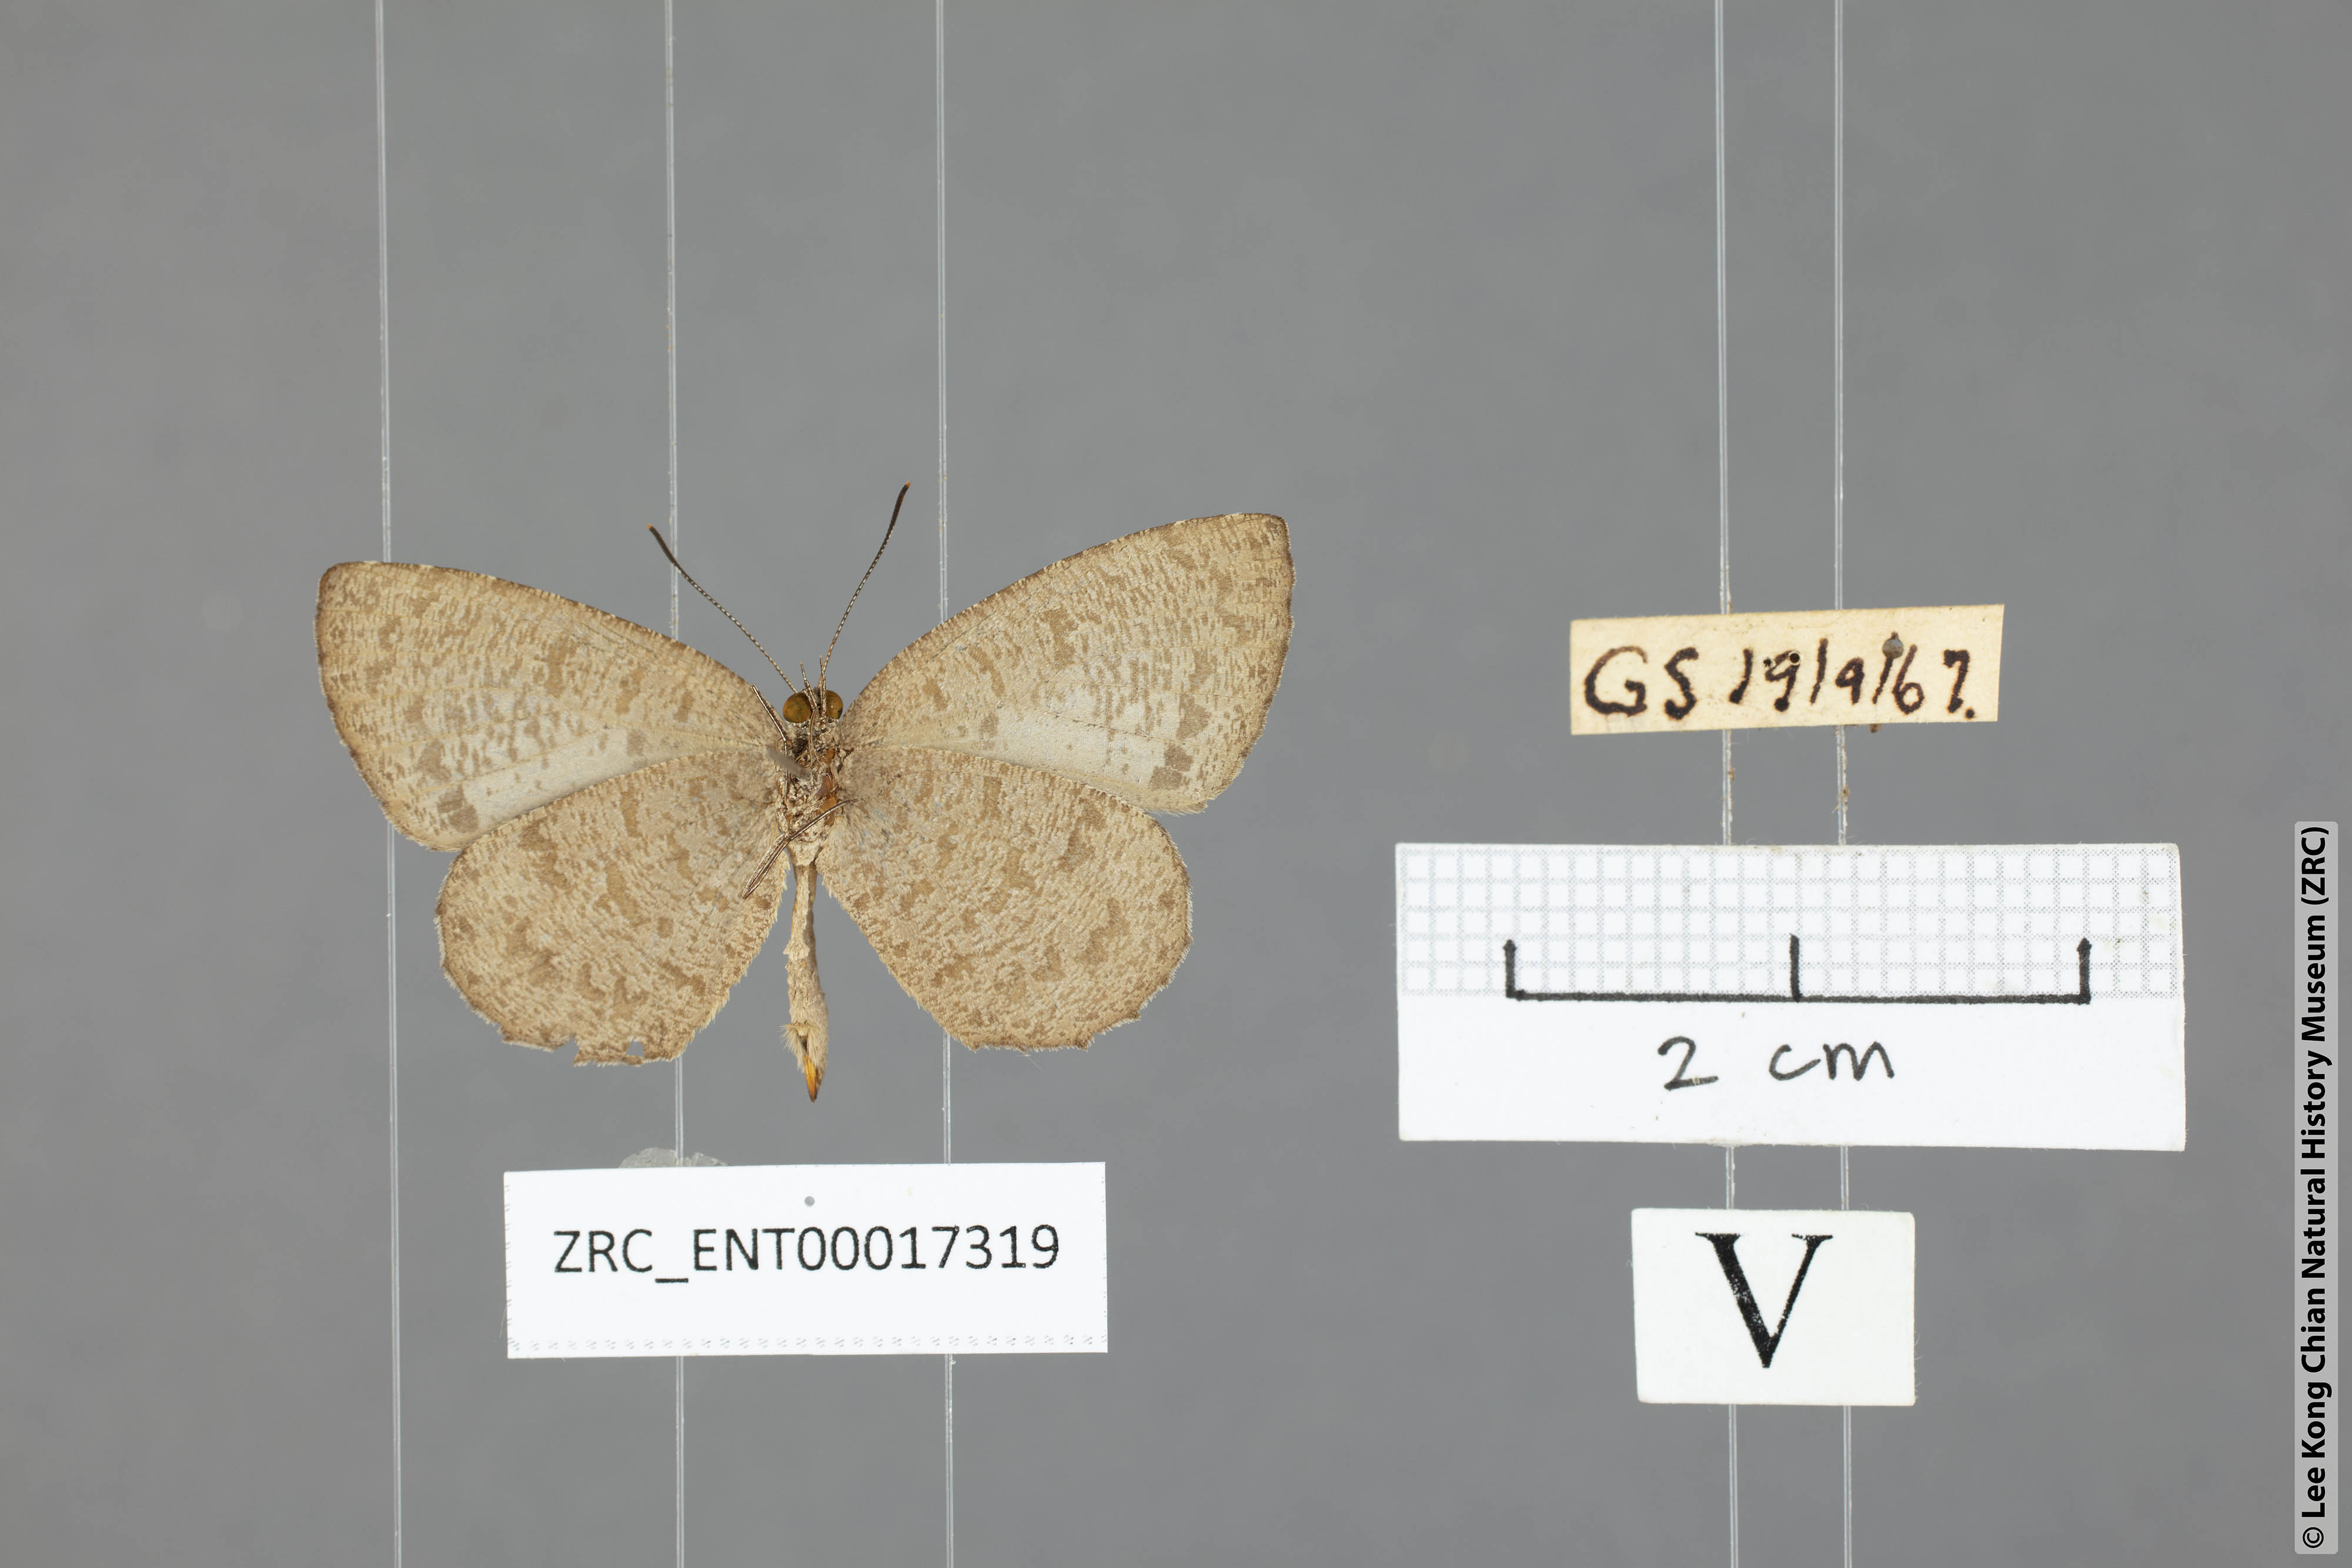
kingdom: Animalia
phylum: Arthropoda
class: Insecta
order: Lepidoptera
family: Lycaenidae
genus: Allotinus
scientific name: Allotinus subviolaceus
